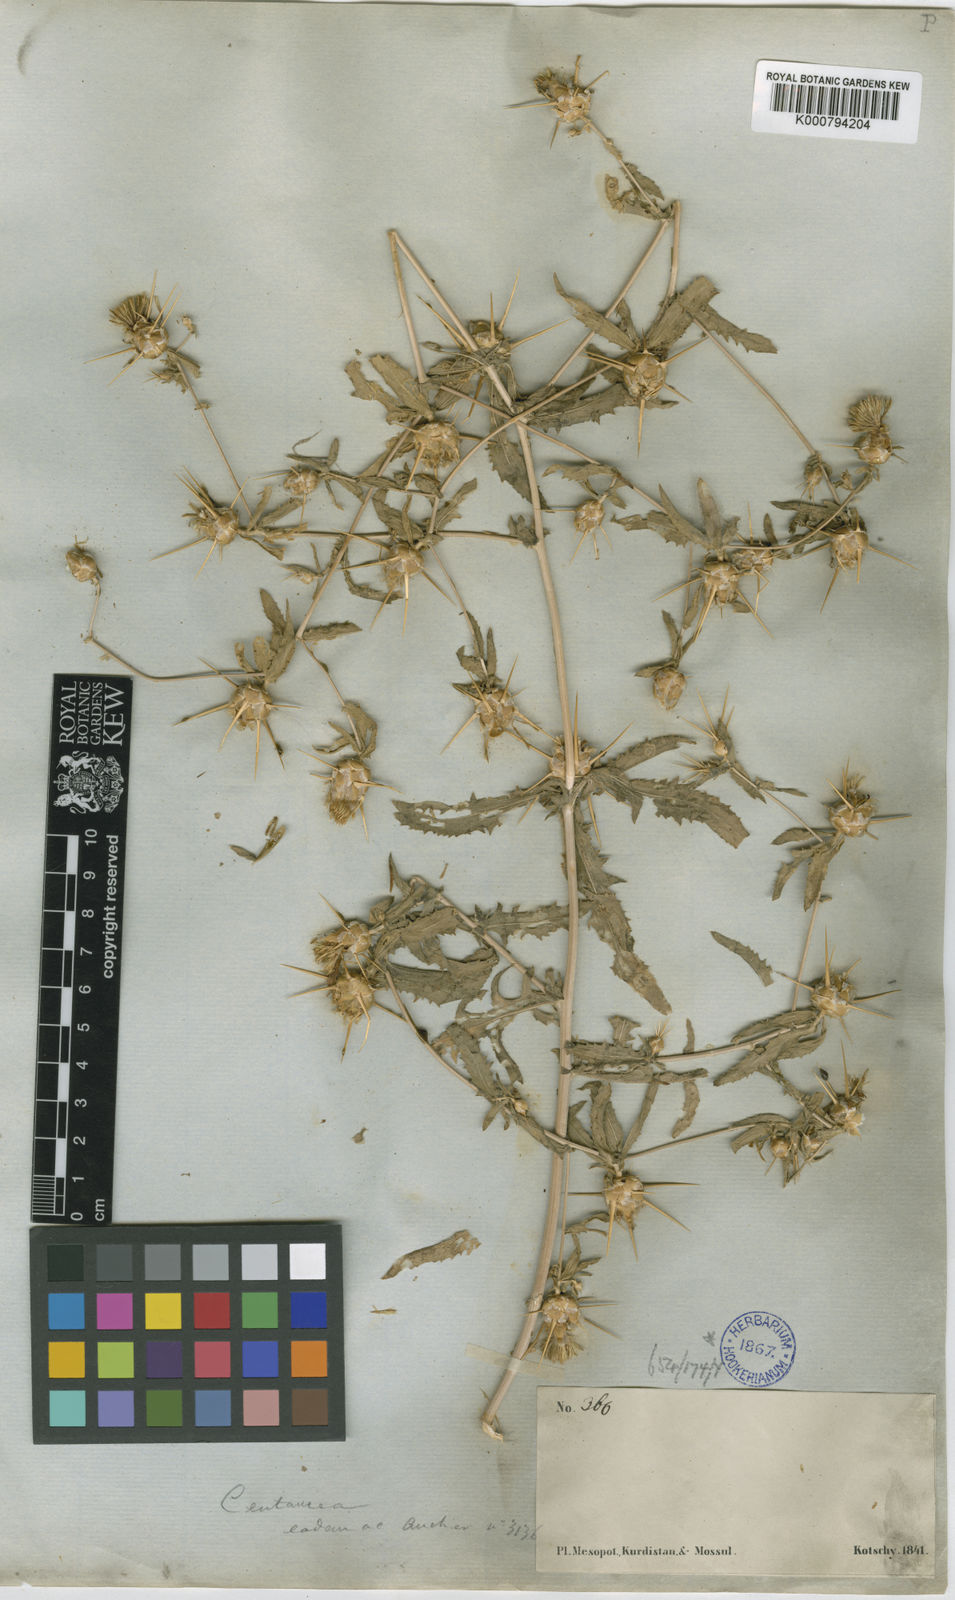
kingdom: Plantae
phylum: Tracheophyta
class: Magnoliopsida
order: Asterales
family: Asteraceae
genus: Centaurea
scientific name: Centaurea hyalolepis
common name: Eastern star-thistle
